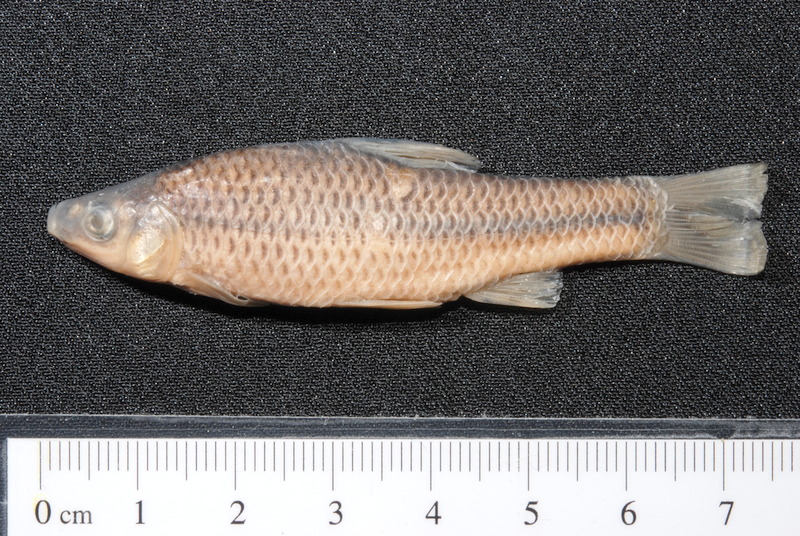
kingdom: Animalia
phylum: Chordata
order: Cypriniformes
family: Cyprinidae
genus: Pseudorasbora
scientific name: Pseudorasbora parva
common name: Topmouth gudgeon
